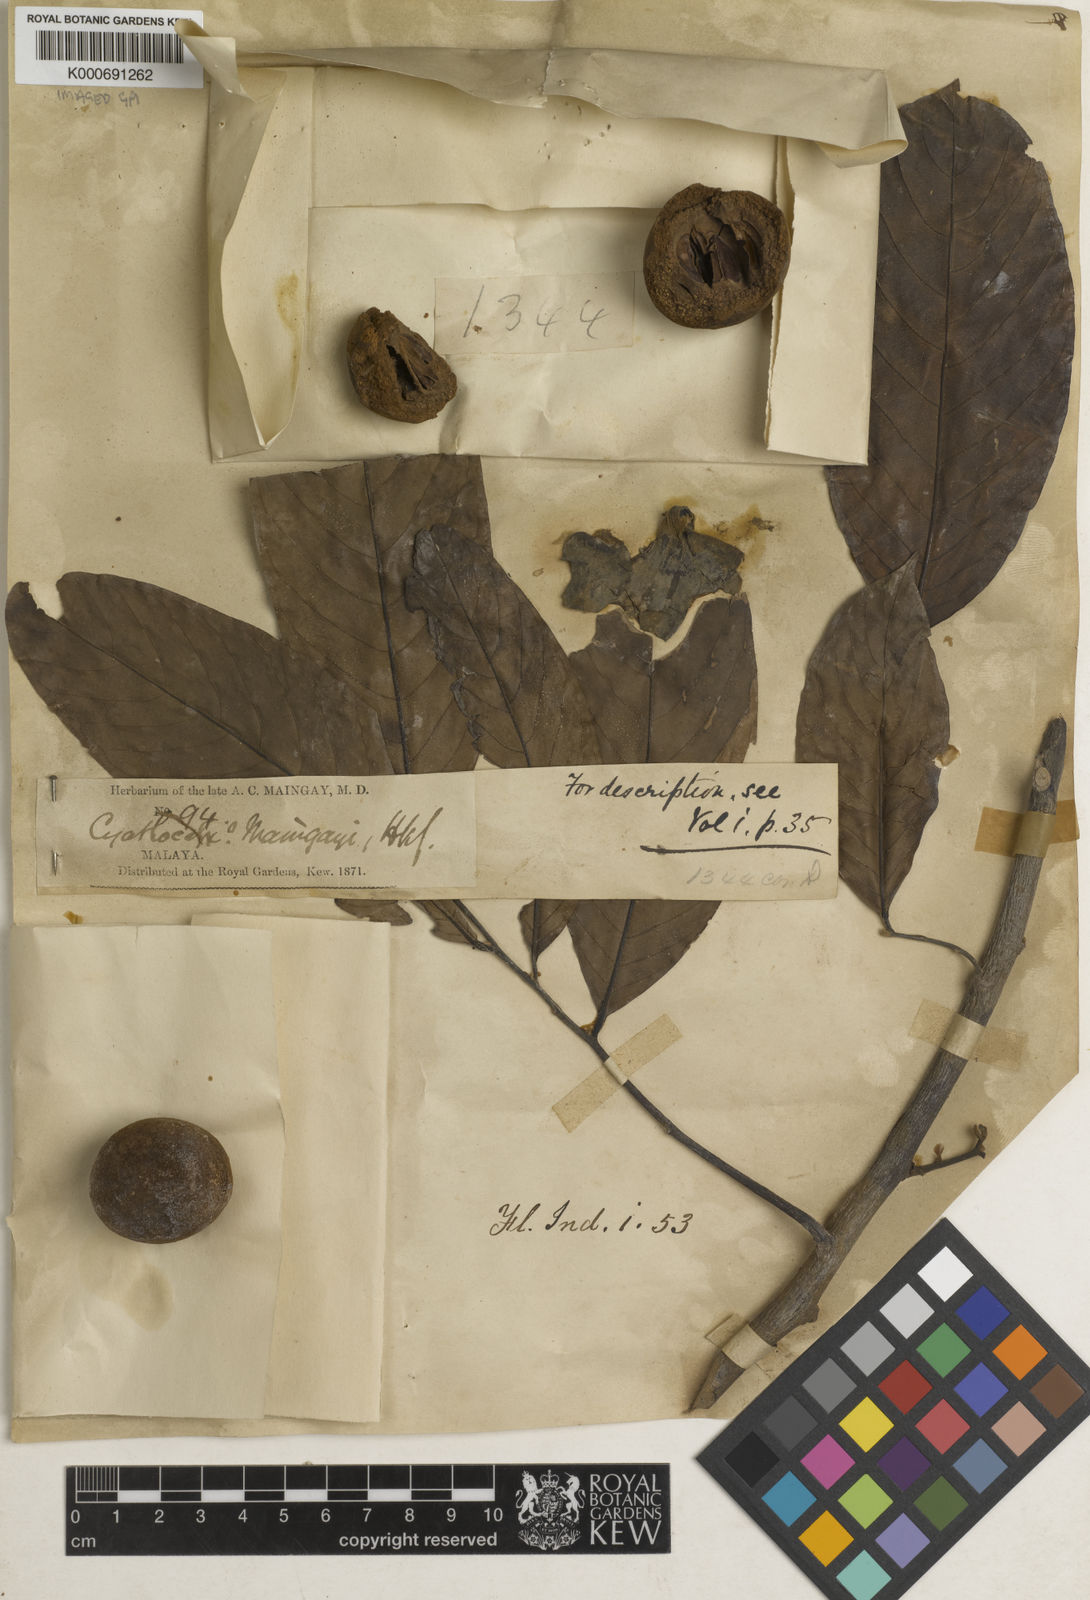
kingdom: Plantae
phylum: Tracheophyta
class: Magnoliopsida
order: Magnoliales
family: Annonaceae
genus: Monocarpia
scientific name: Monocarpia marginalis
